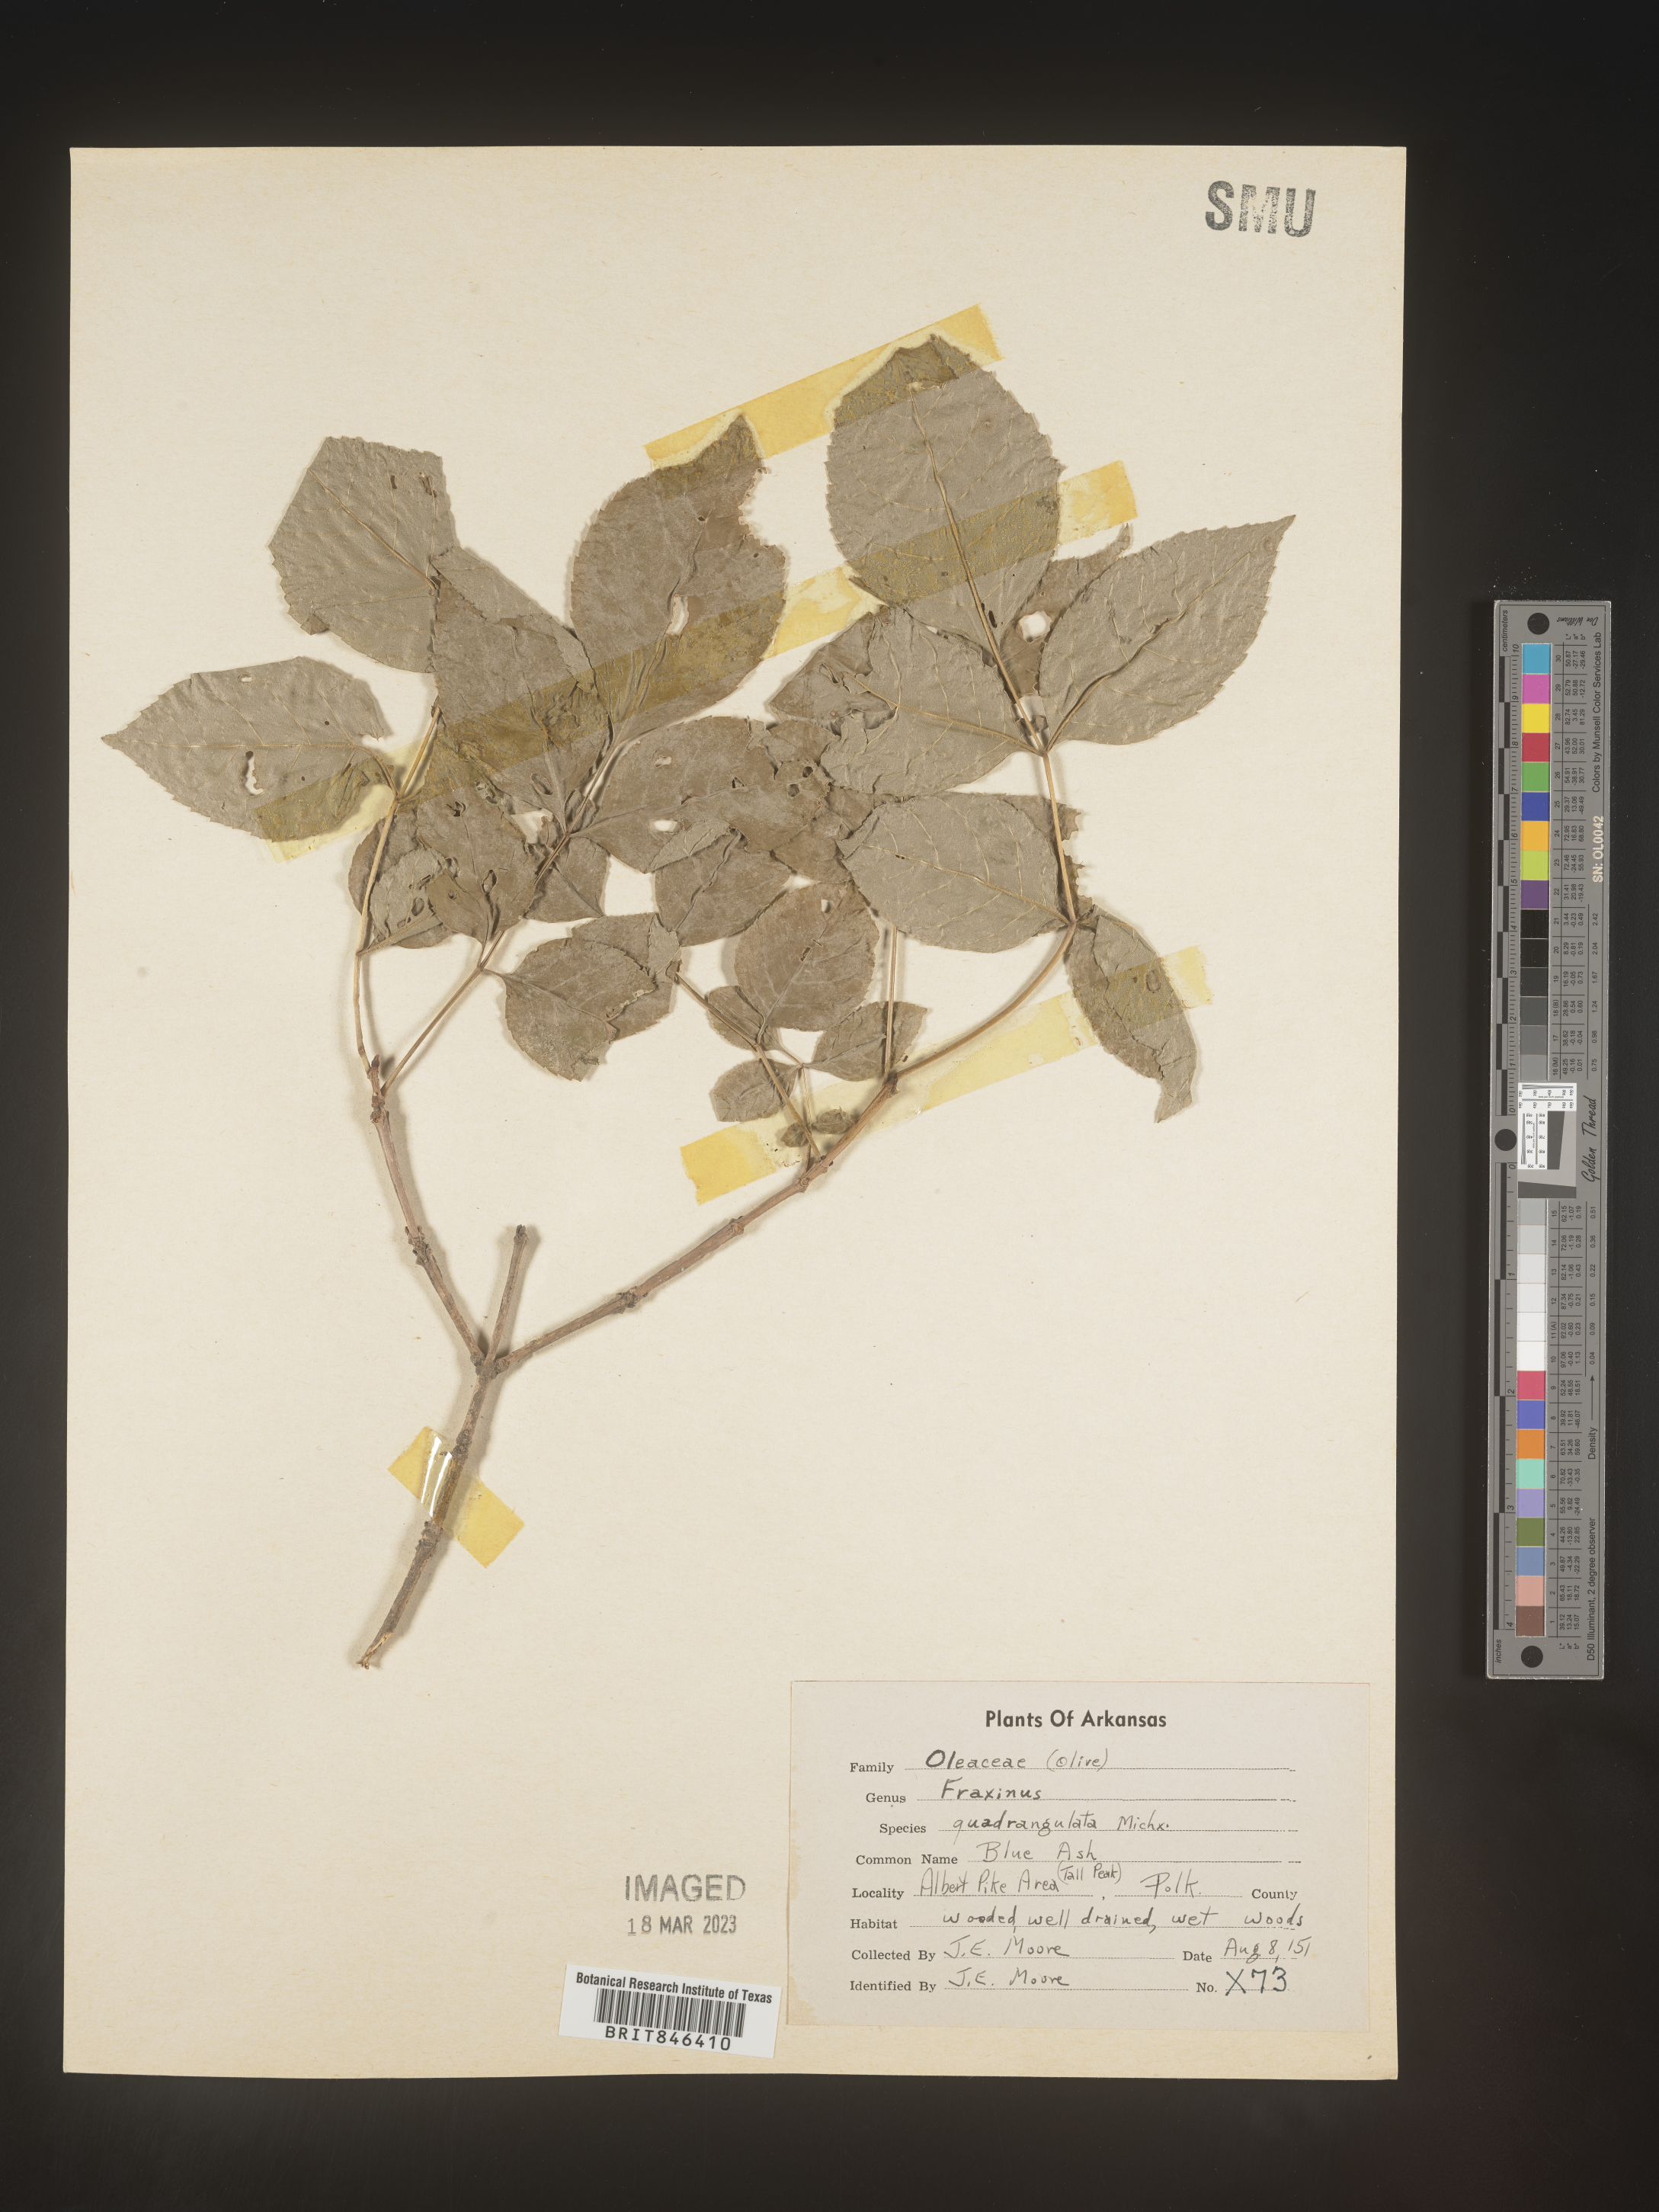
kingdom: Plantae
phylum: Tracheophyta
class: Magnoliopsida
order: Lamiales
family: Oleaceae
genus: Fraxinus
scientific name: Fraxinus quadrangulata
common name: Blue ash
